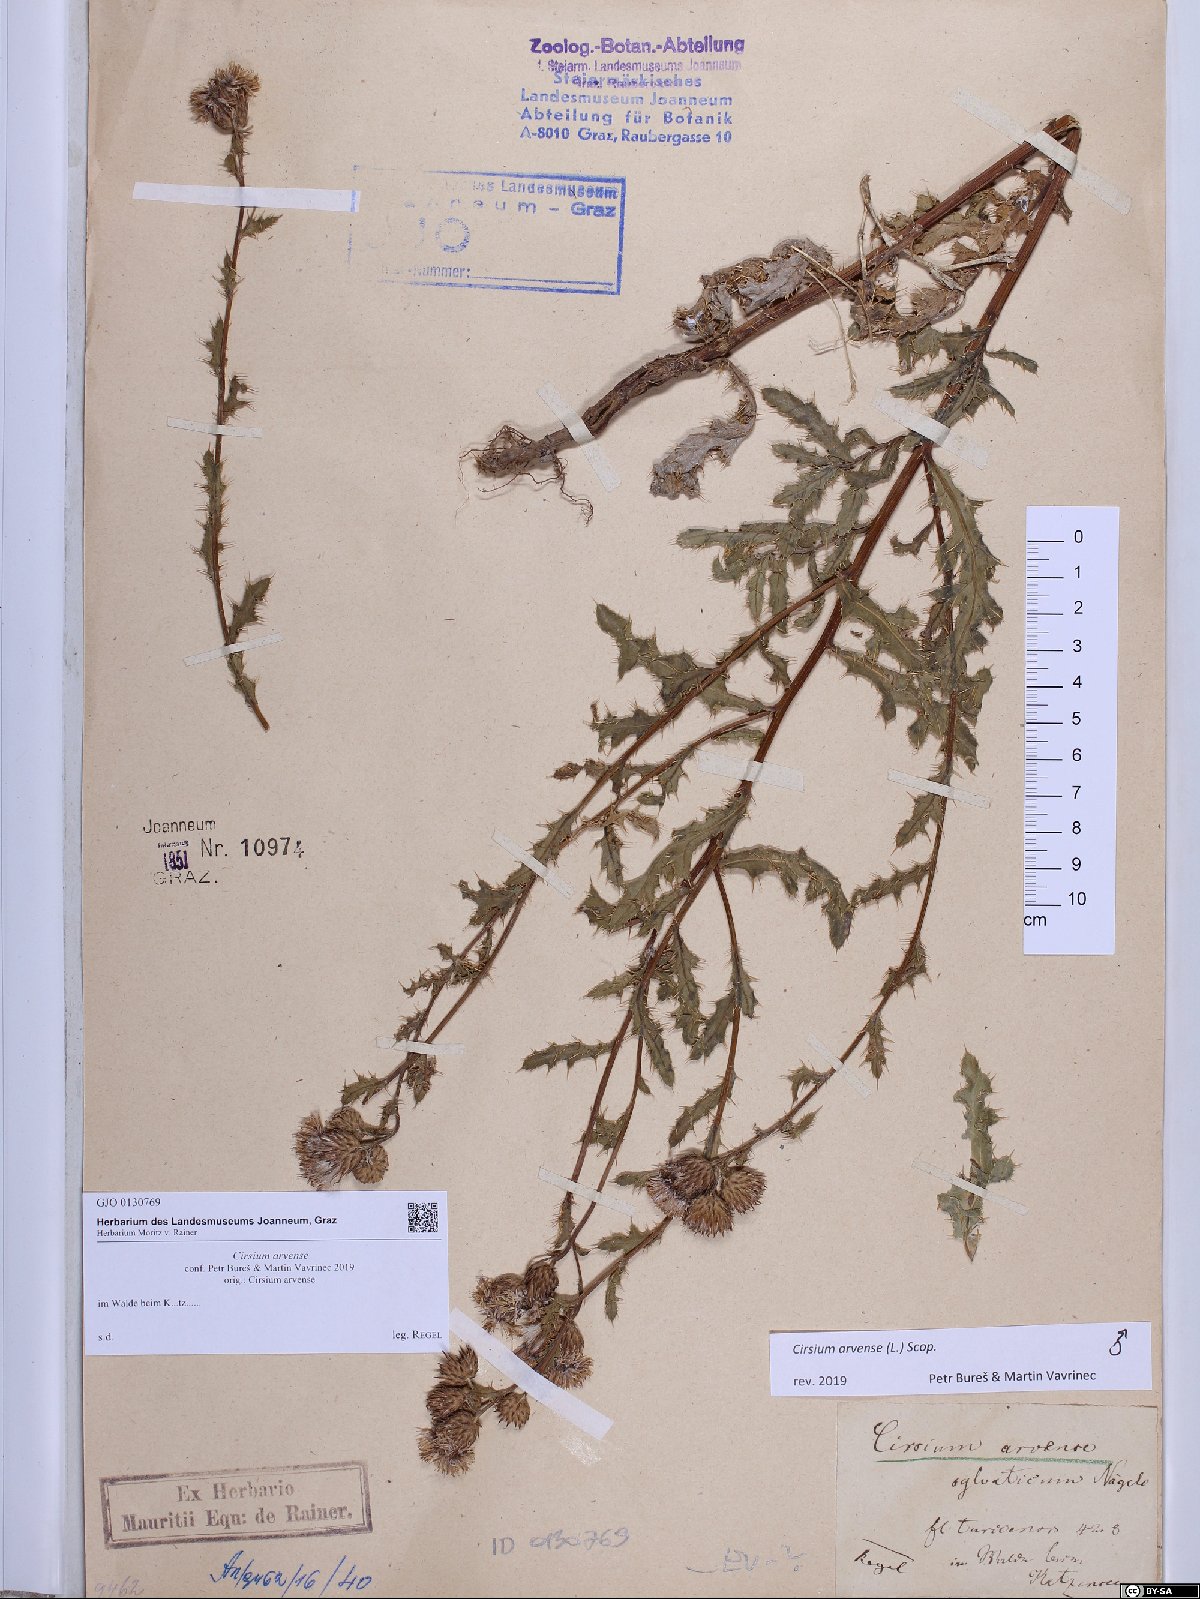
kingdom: Plantae
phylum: Tracheophyta
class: Magnoliopsida
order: Asterales
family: Asteraceae
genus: Cirsium
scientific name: Cirsium arvense
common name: Creeping thistle
